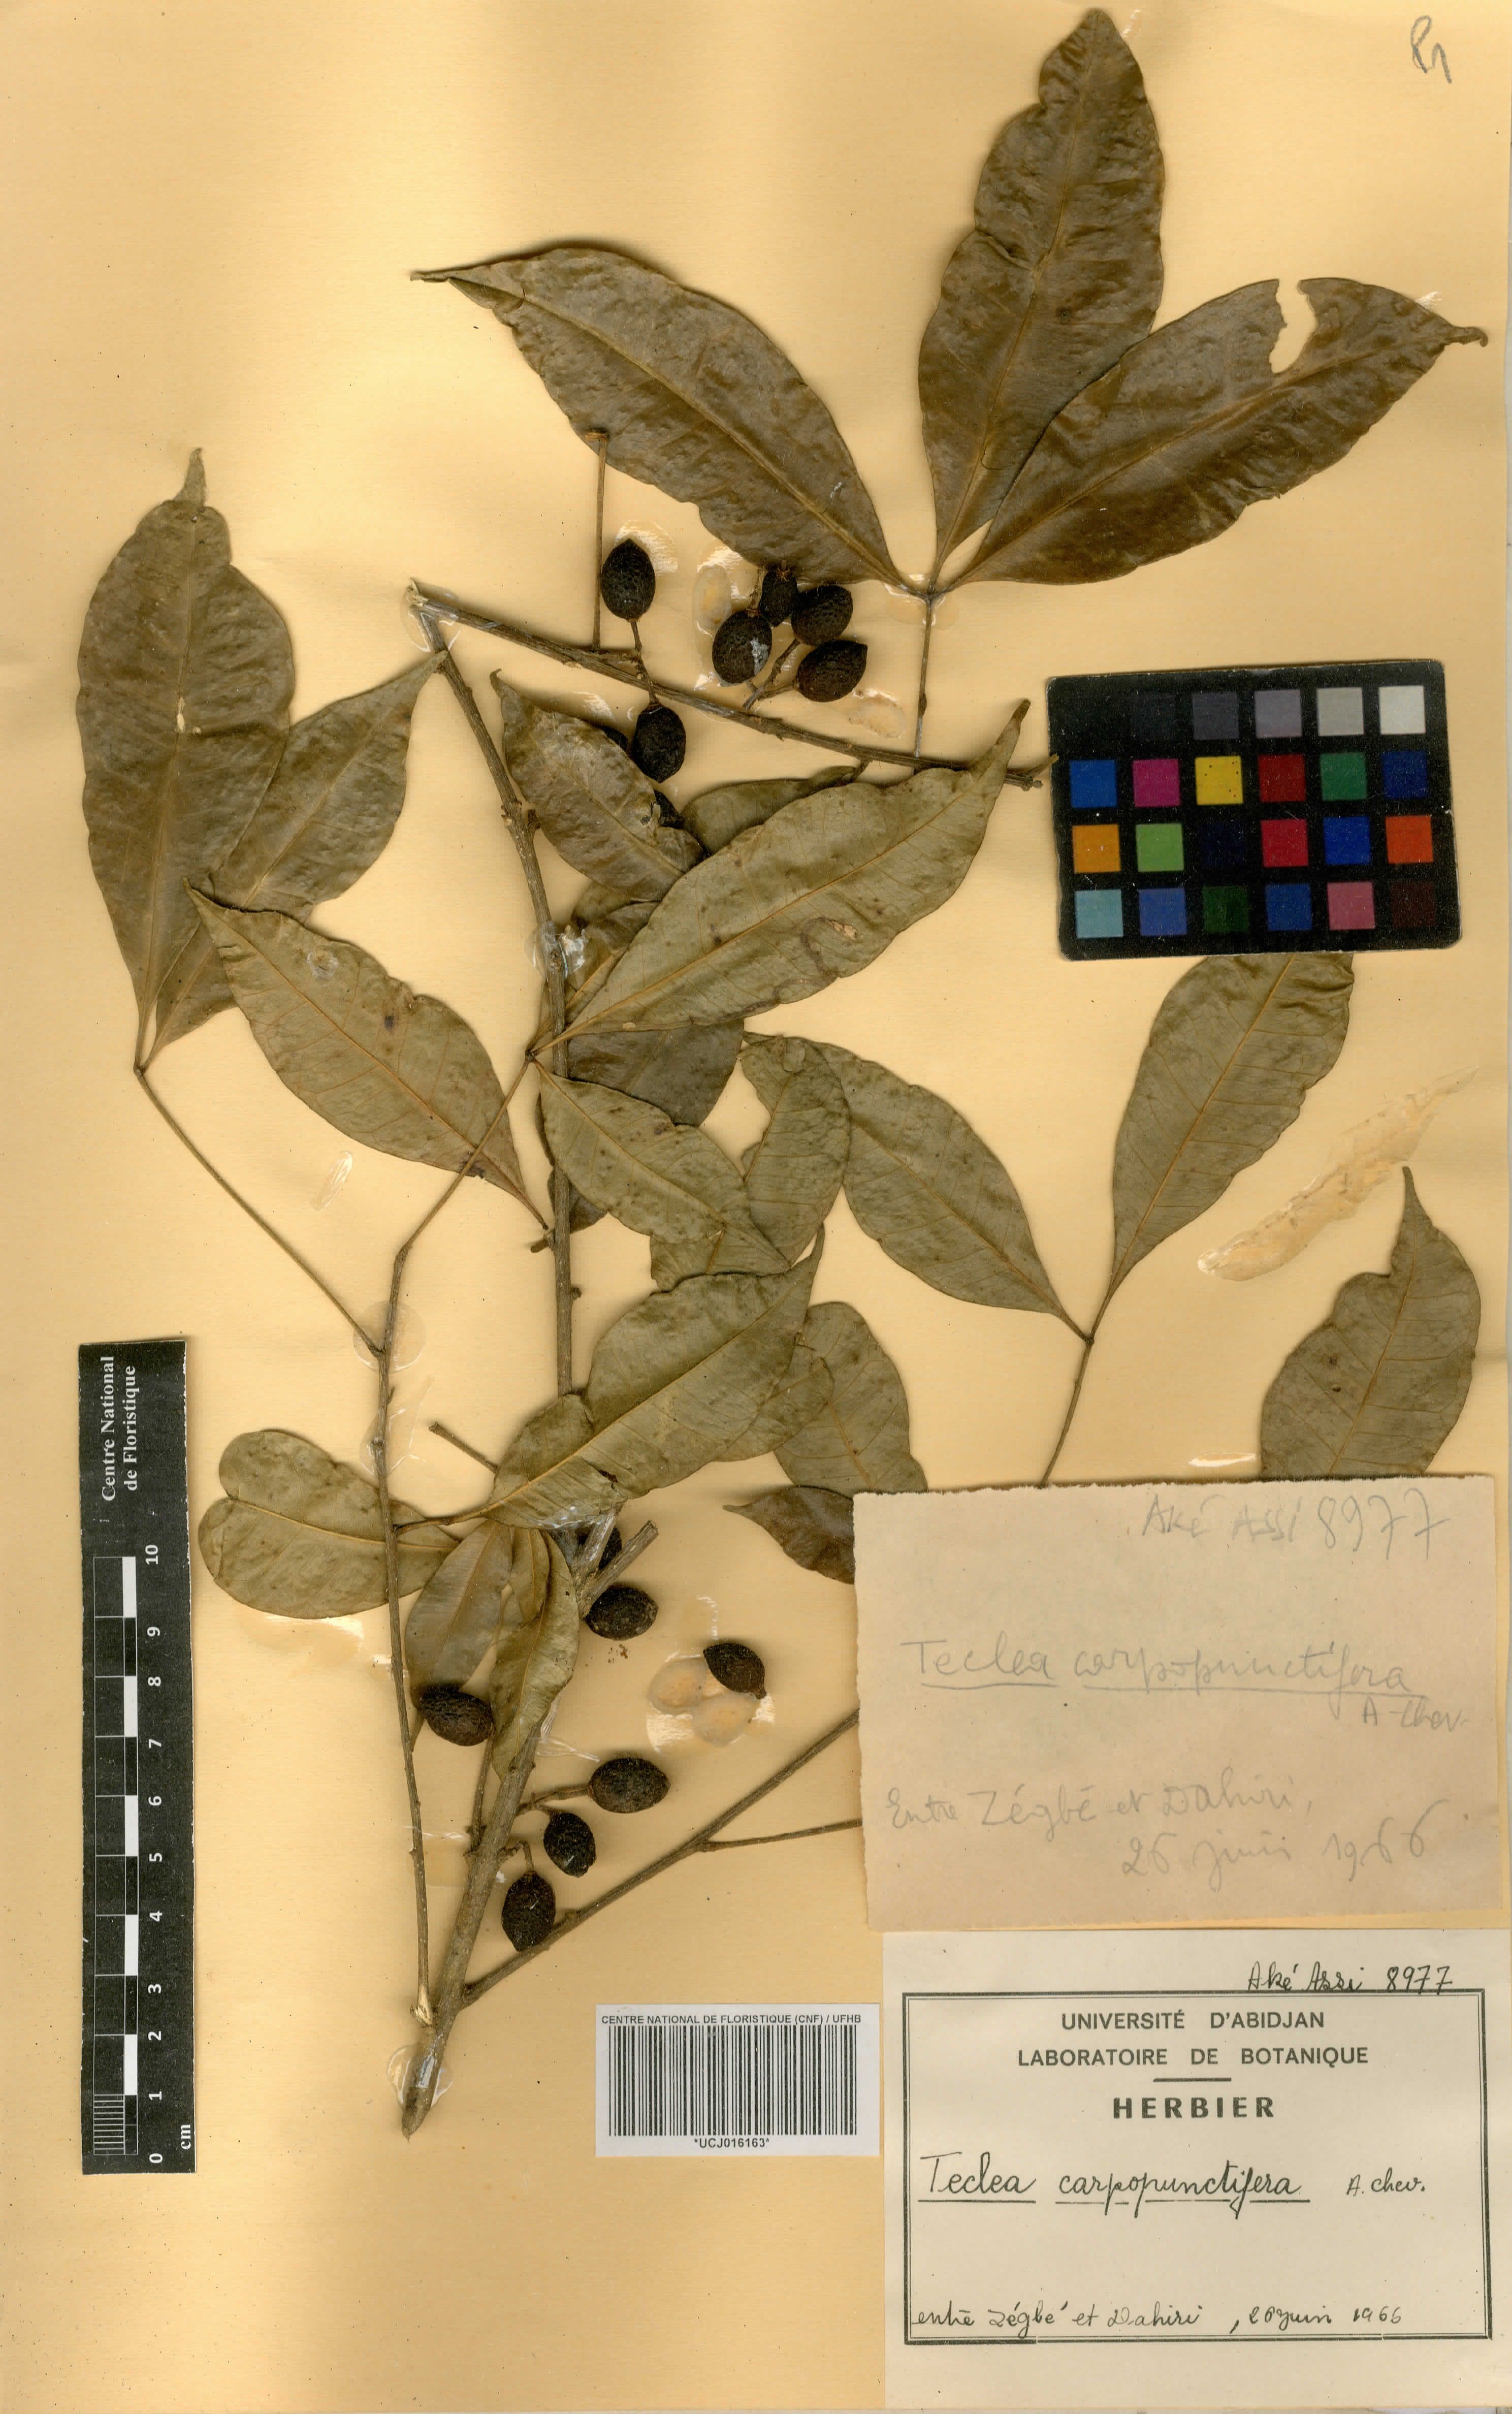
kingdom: Plantae
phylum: Tracheophyta
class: Magnoliopsida
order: Sapindales
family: Rutaceae
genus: Vepris
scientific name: Vepris Teclea carpopunctifera
